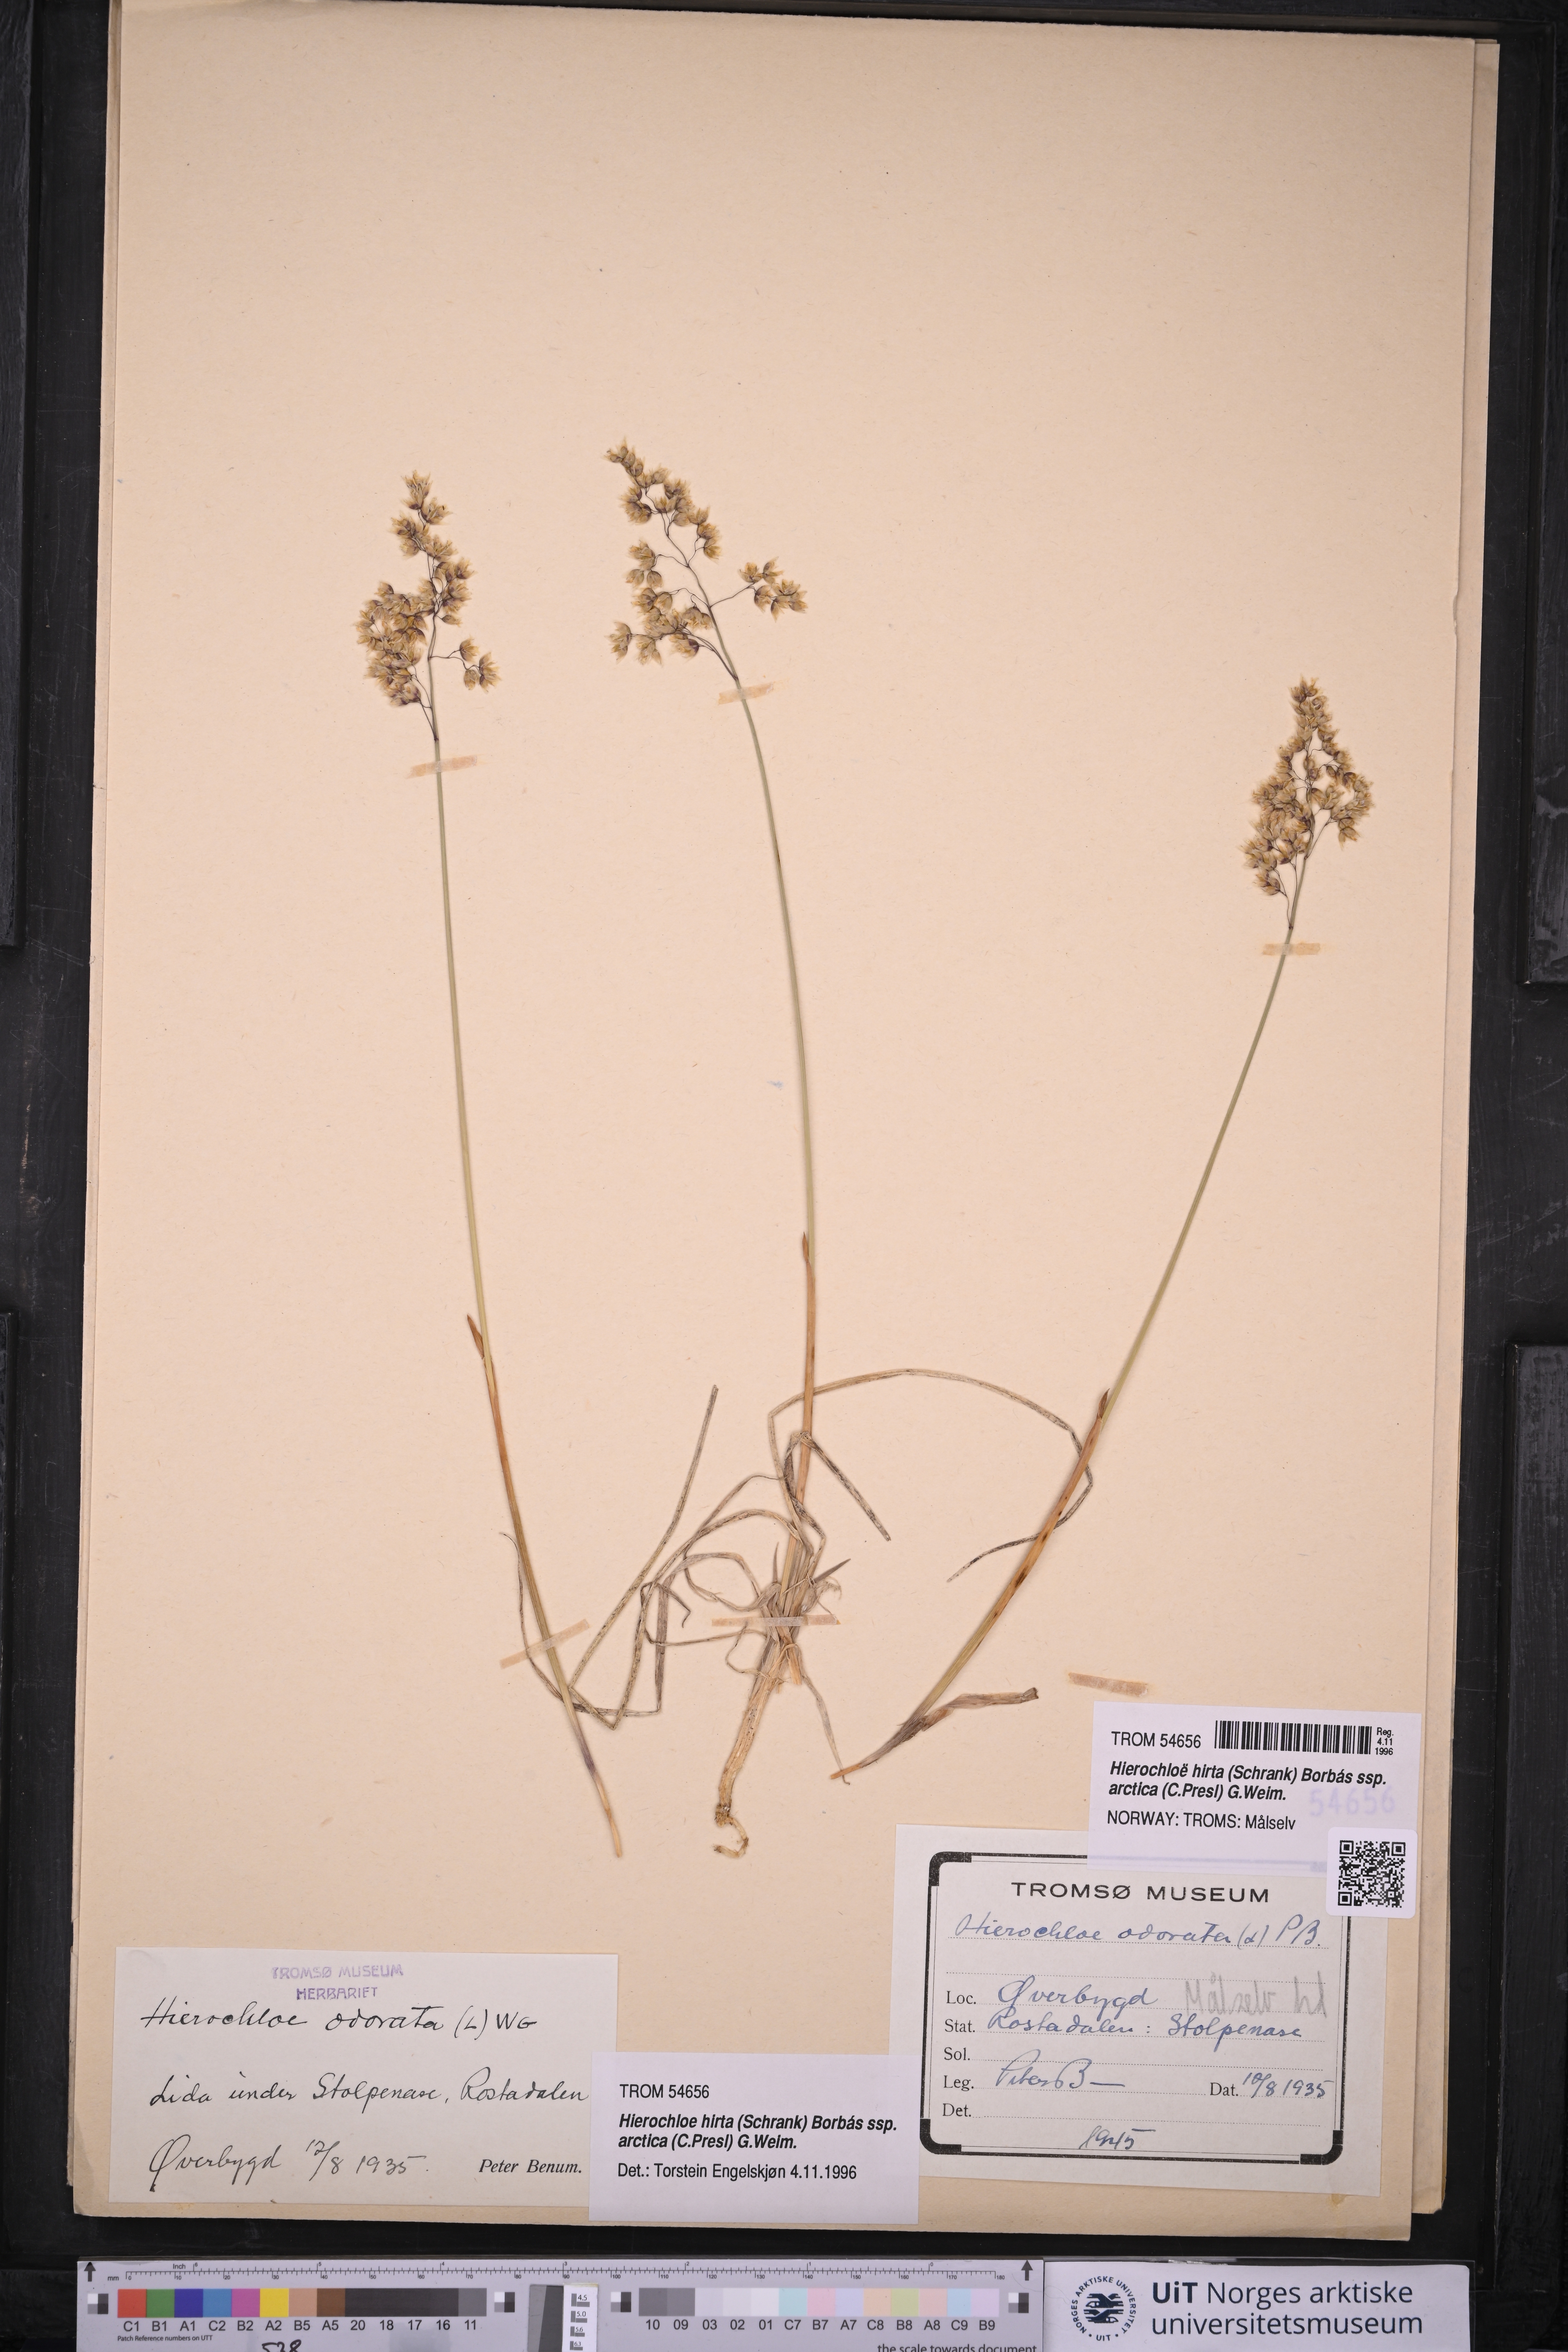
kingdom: Plantae
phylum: Tracheophyta
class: Liliopsida
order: Poales
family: Poaceae
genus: Anthoxanthum
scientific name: Anthoxanthum nitens
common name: Holy grass
